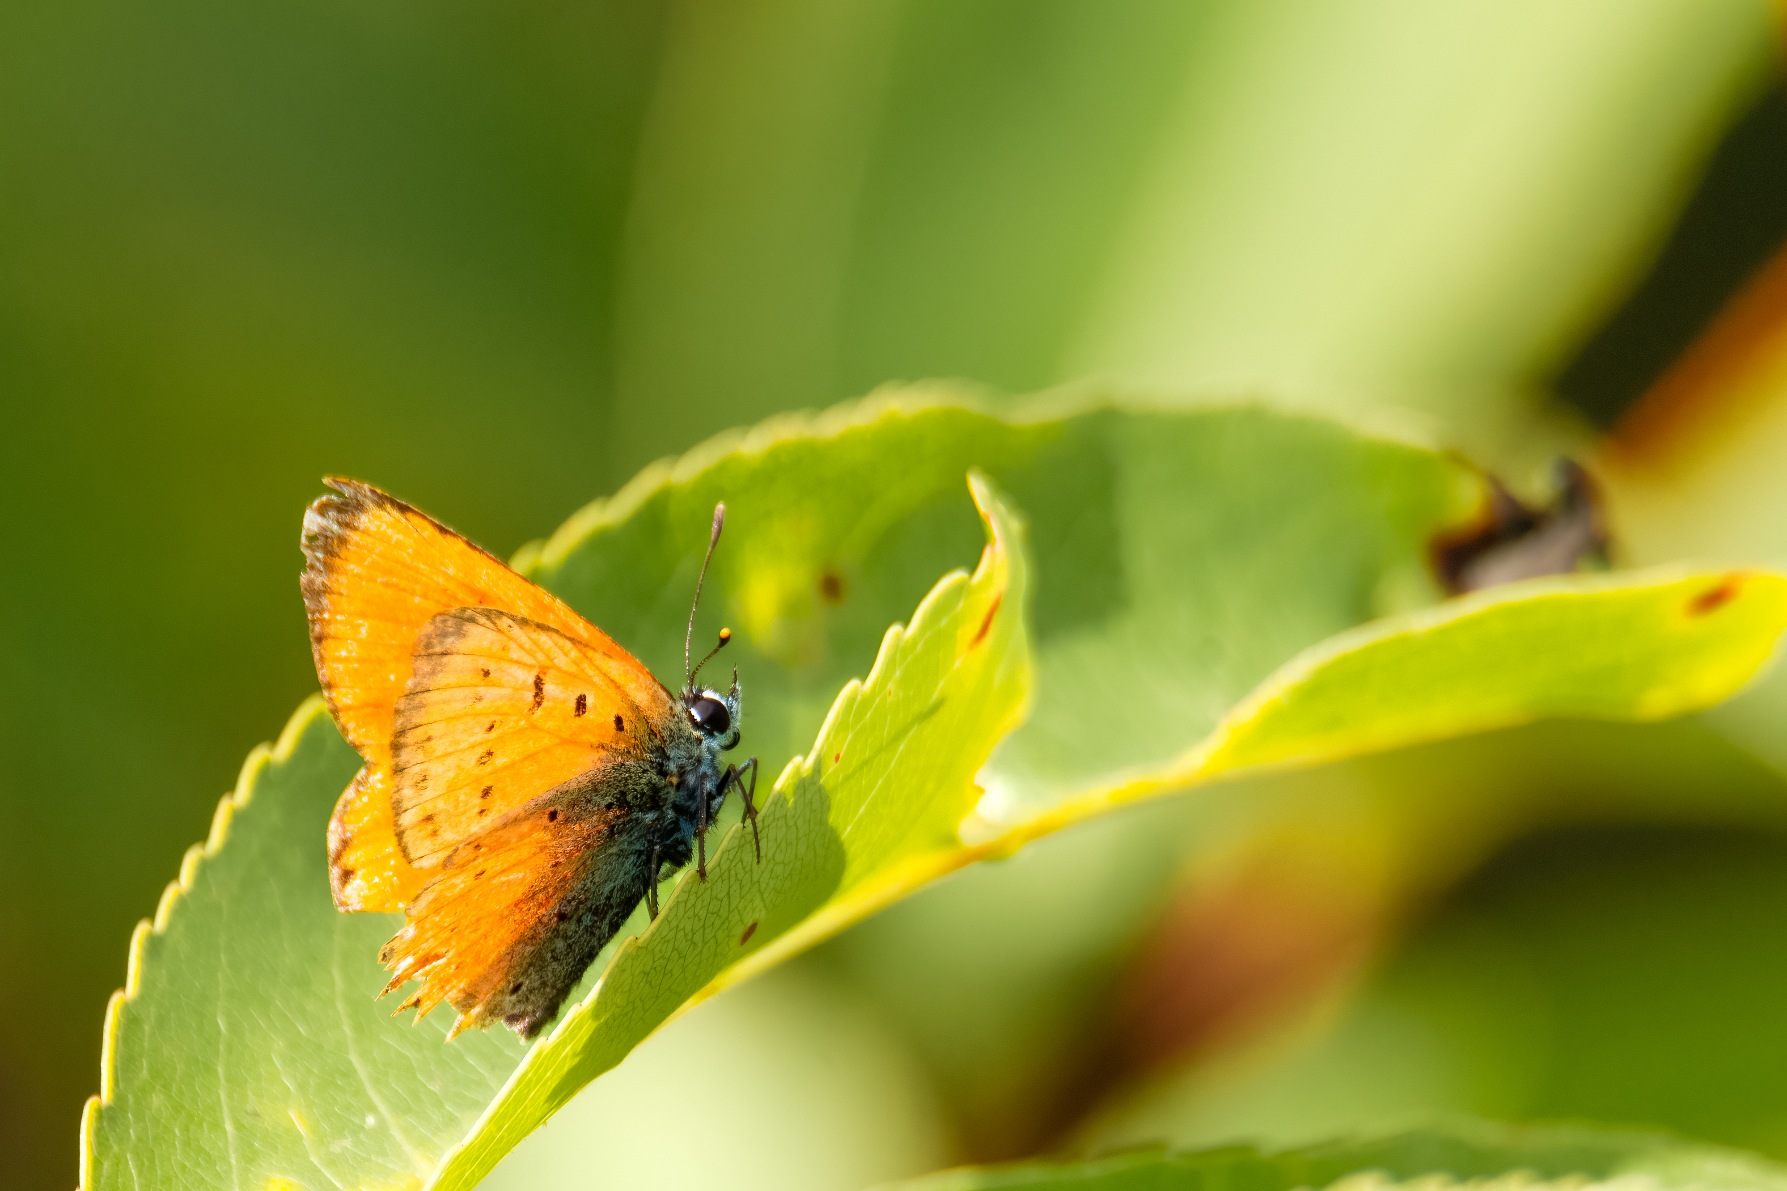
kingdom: Animalia
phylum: Arthropoda
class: Insecta
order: Lepidoptera
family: Lycaenidae
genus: Lycaena
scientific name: Lycaena virgaureae
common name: Dukatsommerfugl
